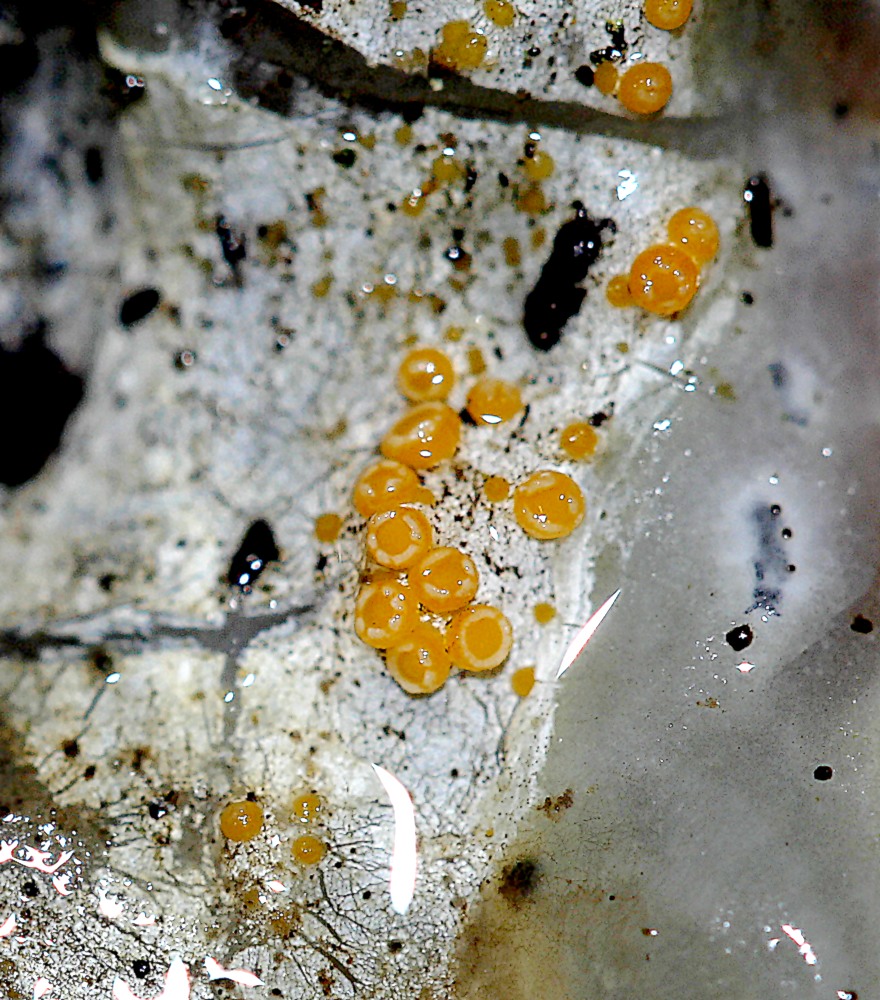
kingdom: Fungi
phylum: Ascomycota
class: Sareomycetes
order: Sareales
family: Sareaceae
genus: Sarea
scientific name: Sarea resinae
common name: orangegul harpiksskive
